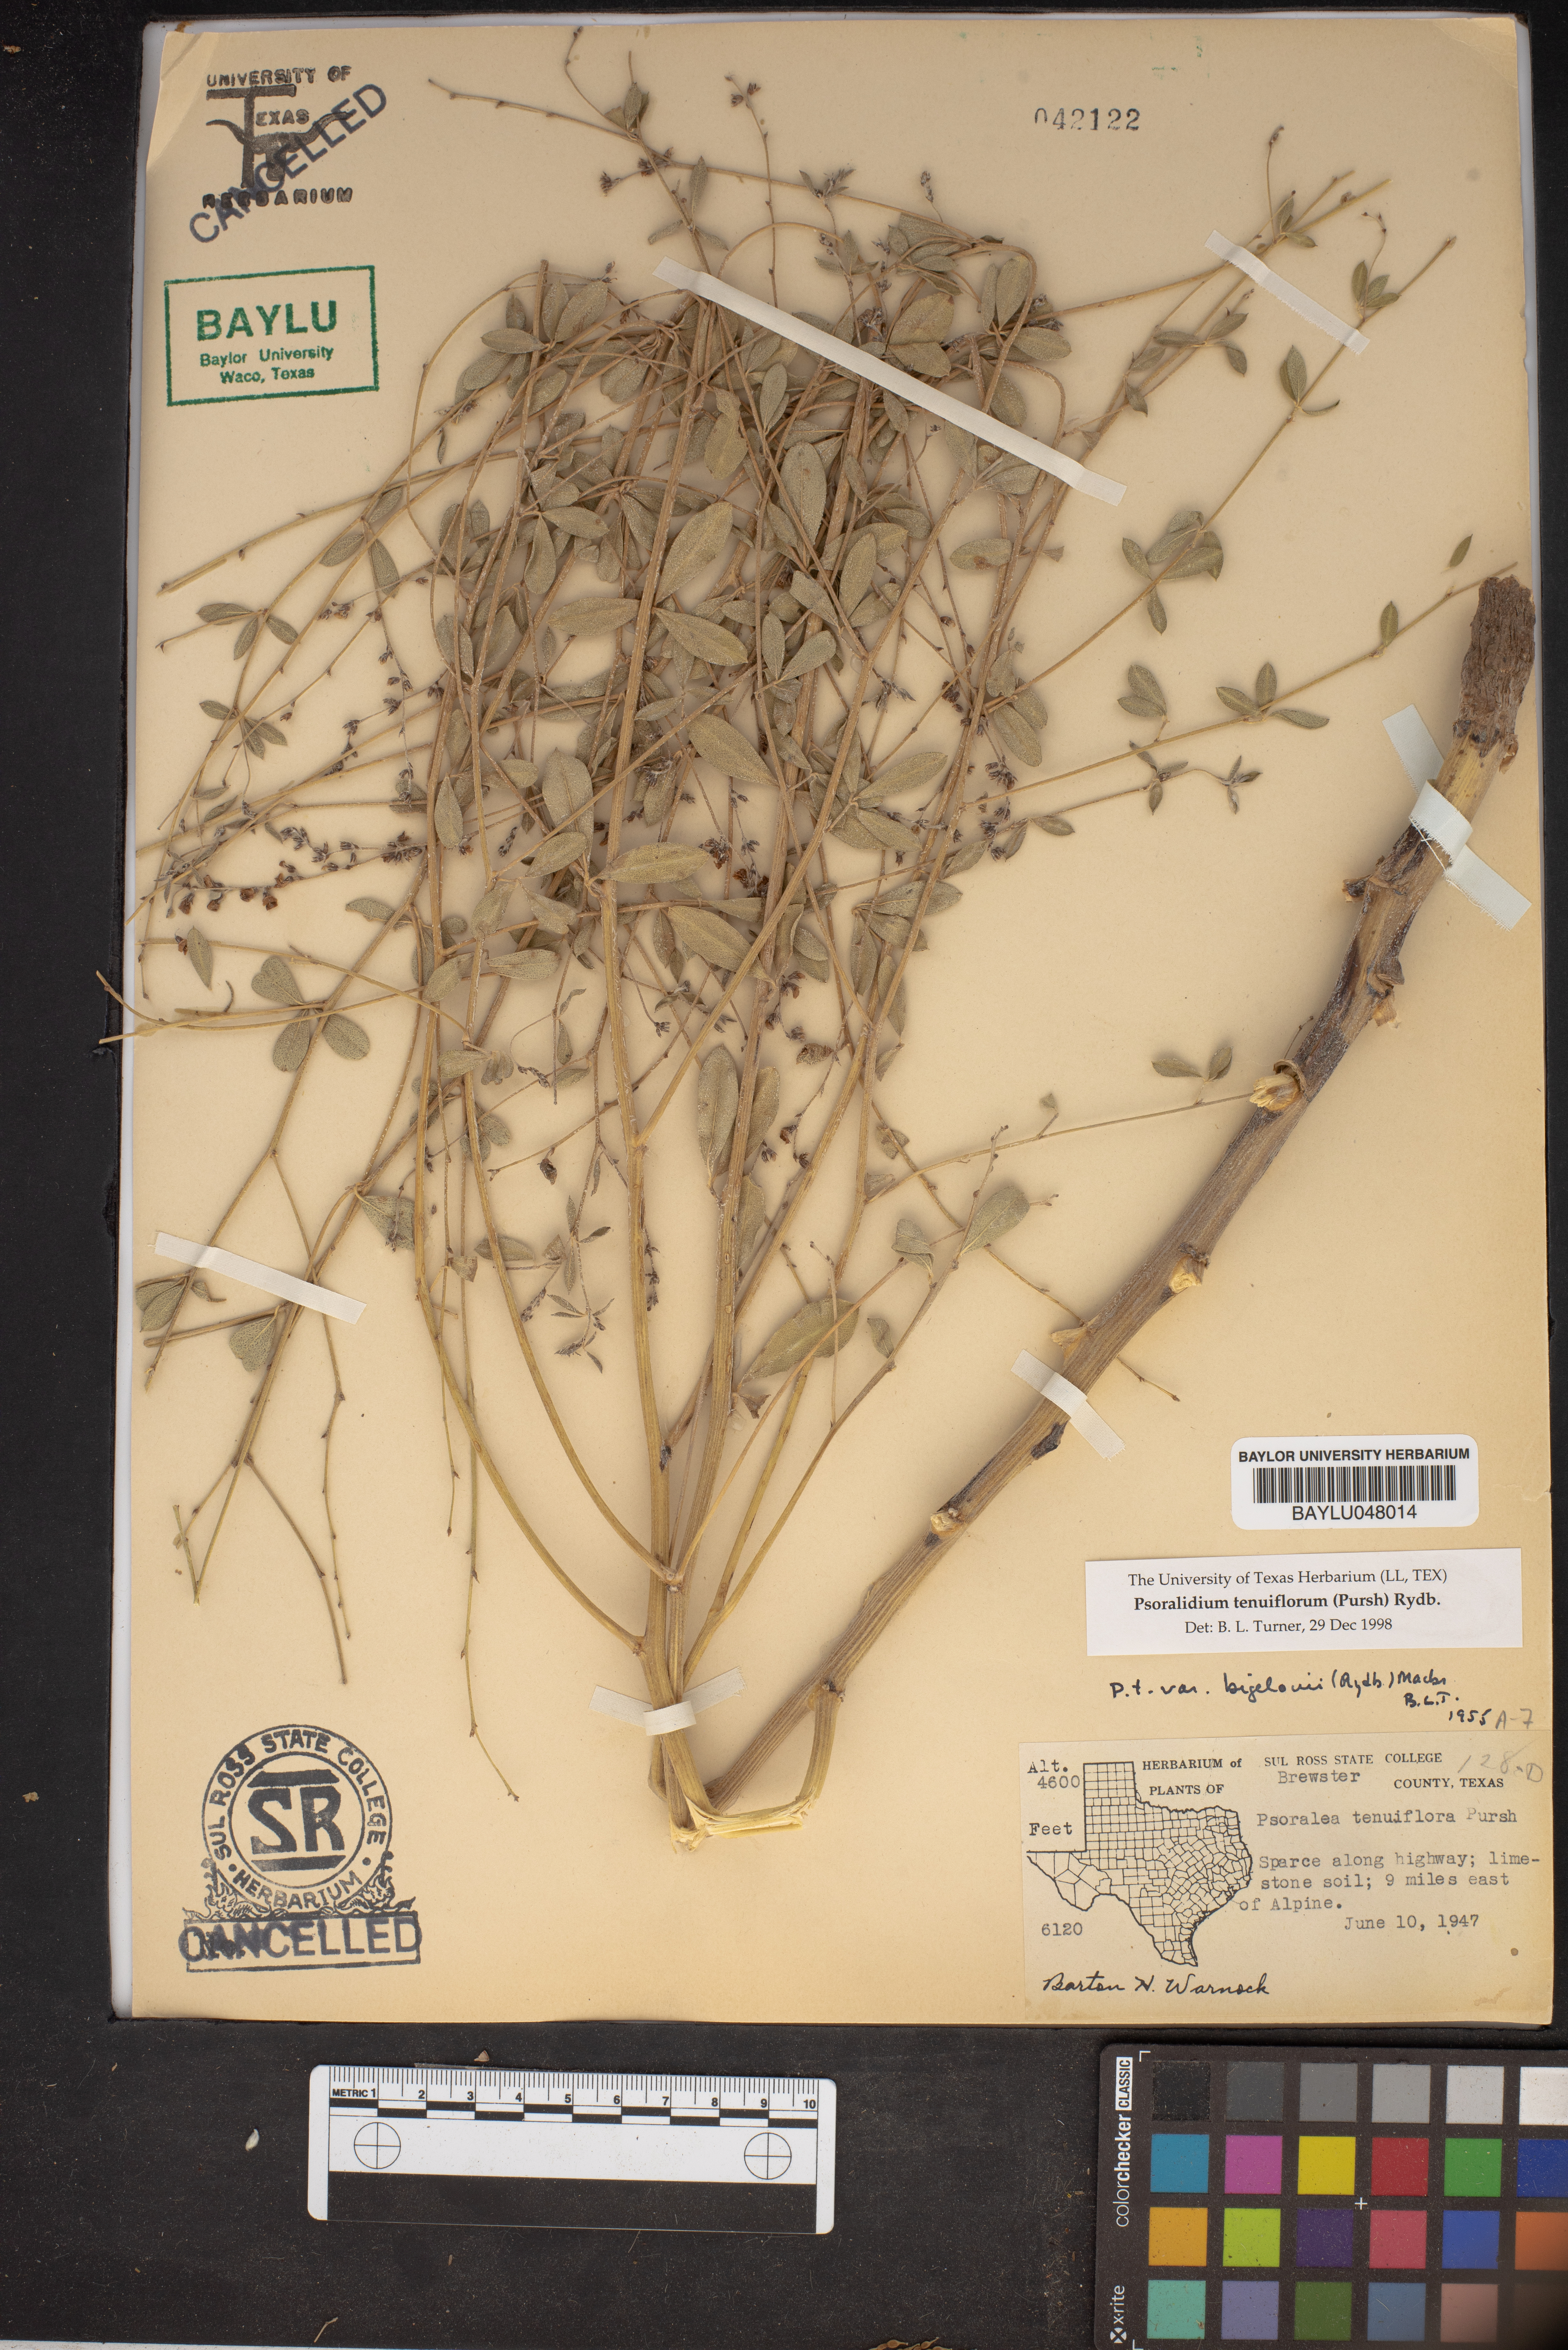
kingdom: Plantae
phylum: Tracheophyta
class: Magnoliopsida
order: Fabales
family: Fabaceae
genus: Pediomelum
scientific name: Pediomelum tenuiflorum
